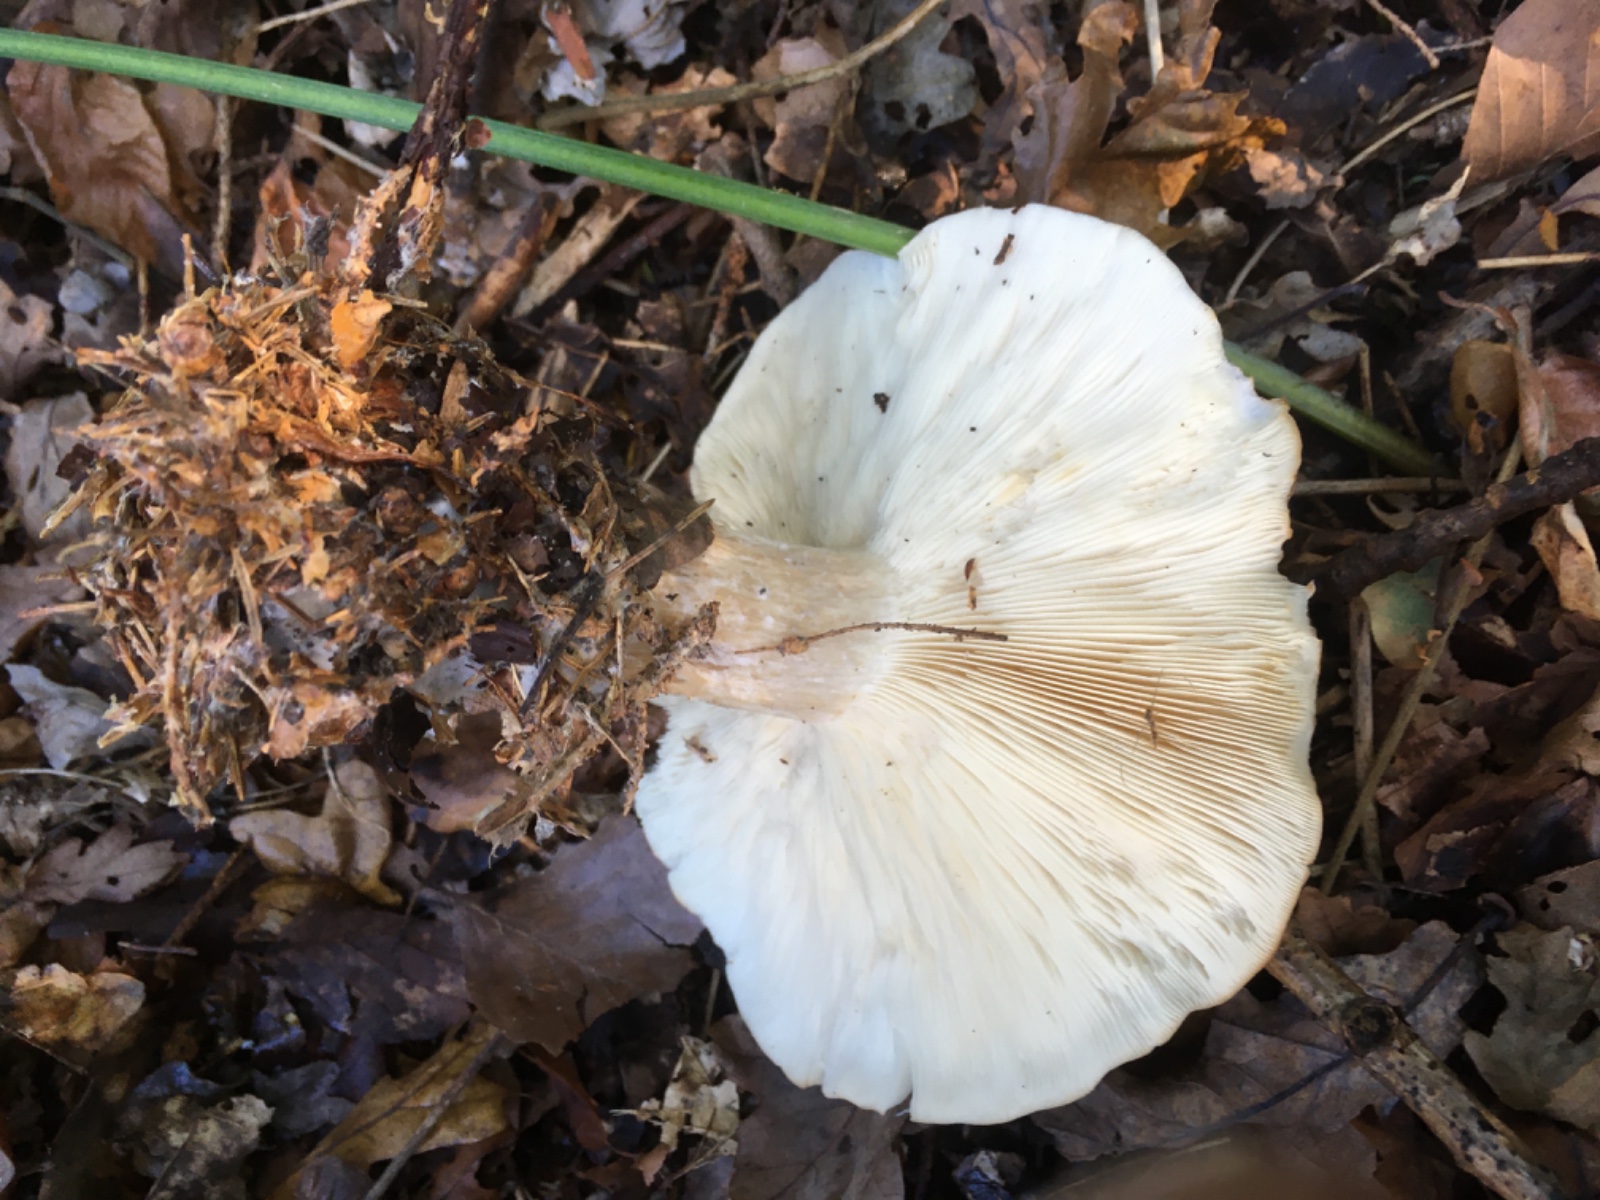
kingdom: Fungi
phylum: Basidiomycota
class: Agaricomycetes
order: Agaricales
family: Tricholomataceae
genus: Clitocybe
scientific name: Clitocybe nebularis
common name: tåge-tragthat
